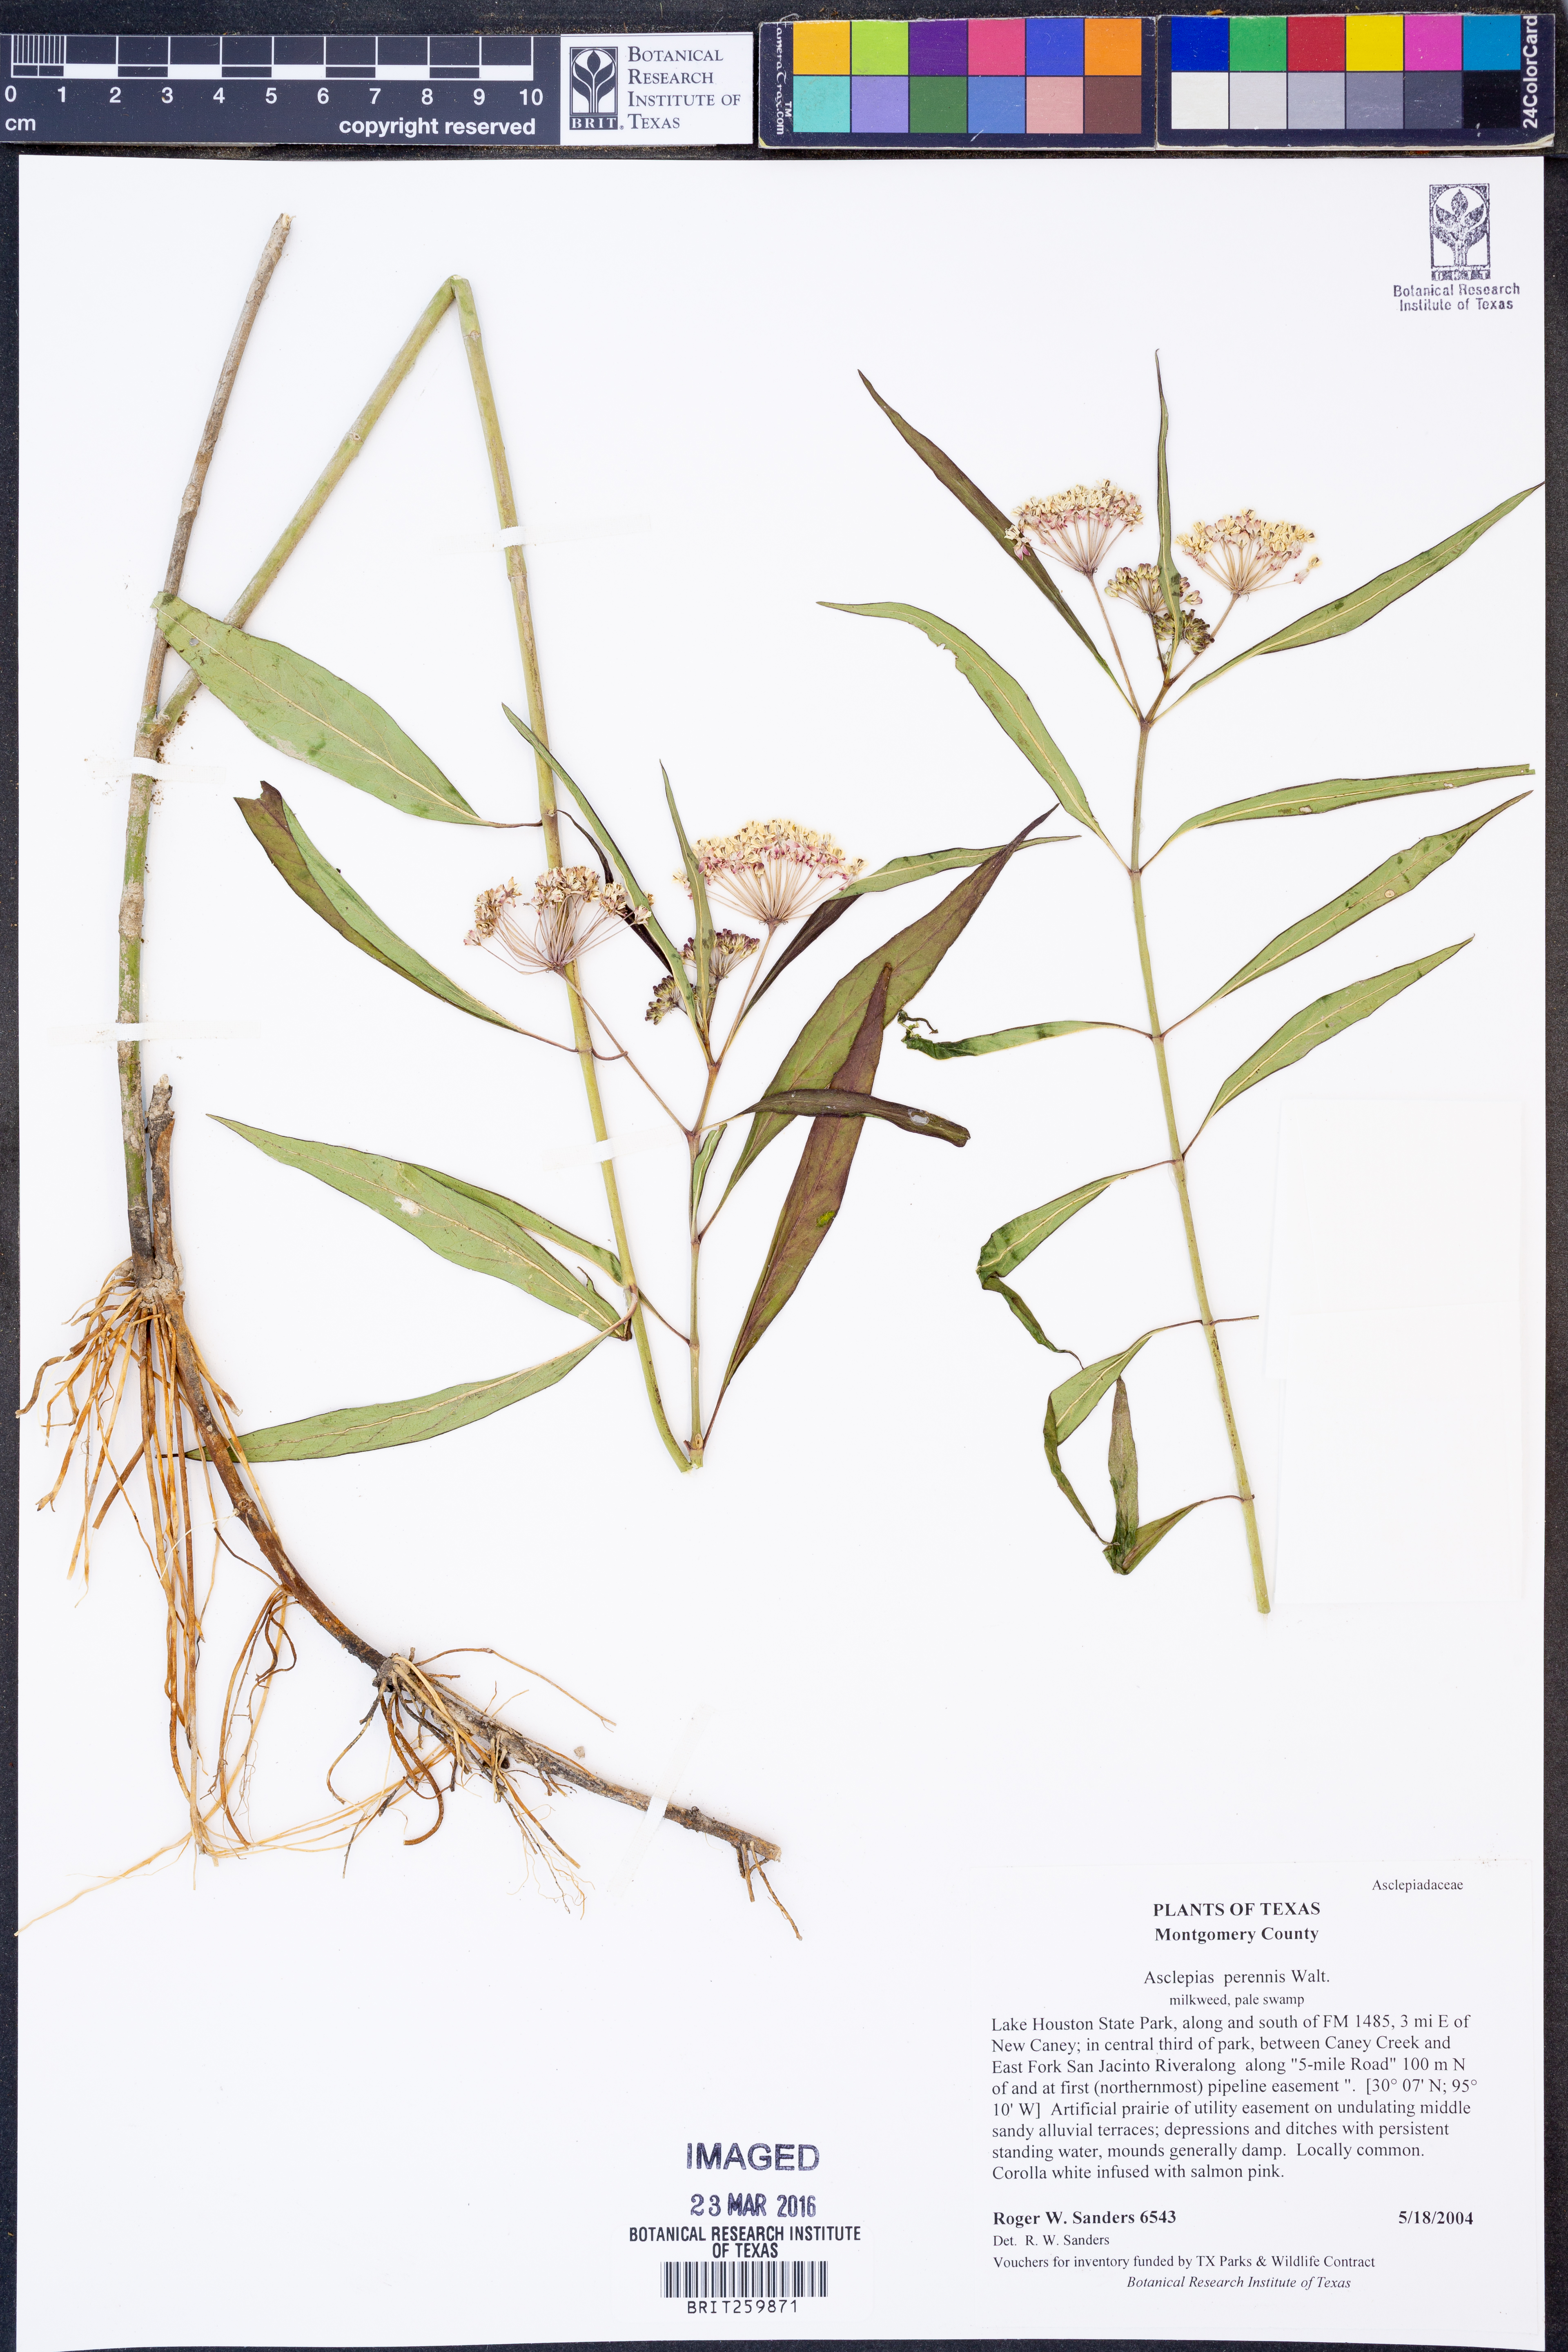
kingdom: Plantae
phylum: Tracheophyta
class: Magnoliopsida
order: Gentianales
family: Apocynaceae
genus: Asclepias
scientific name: Asclepias perennis
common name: Smooth-seed milkweed
